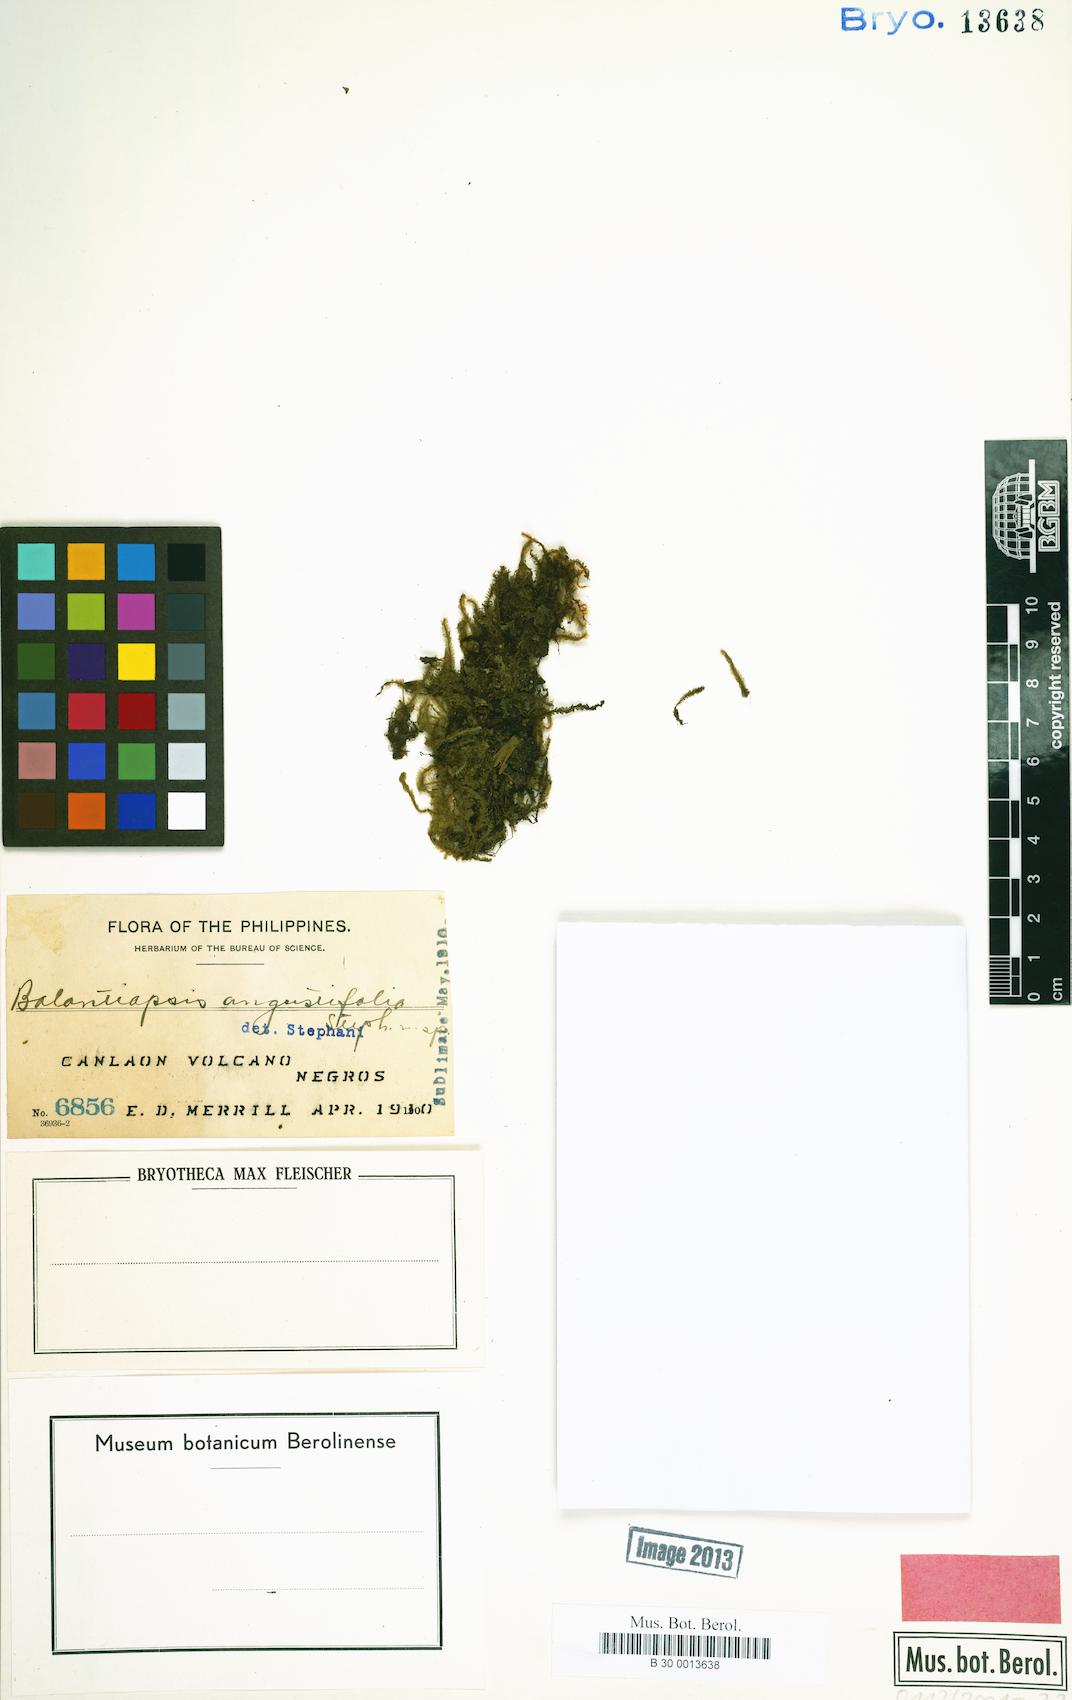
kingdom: Plantae
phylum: Marchantiophyta
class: Jungermanniopsida
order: Jungermanniales
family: Balantiopsidaceae
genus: Balantiopsis
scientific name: Balantiopsis purpurata
